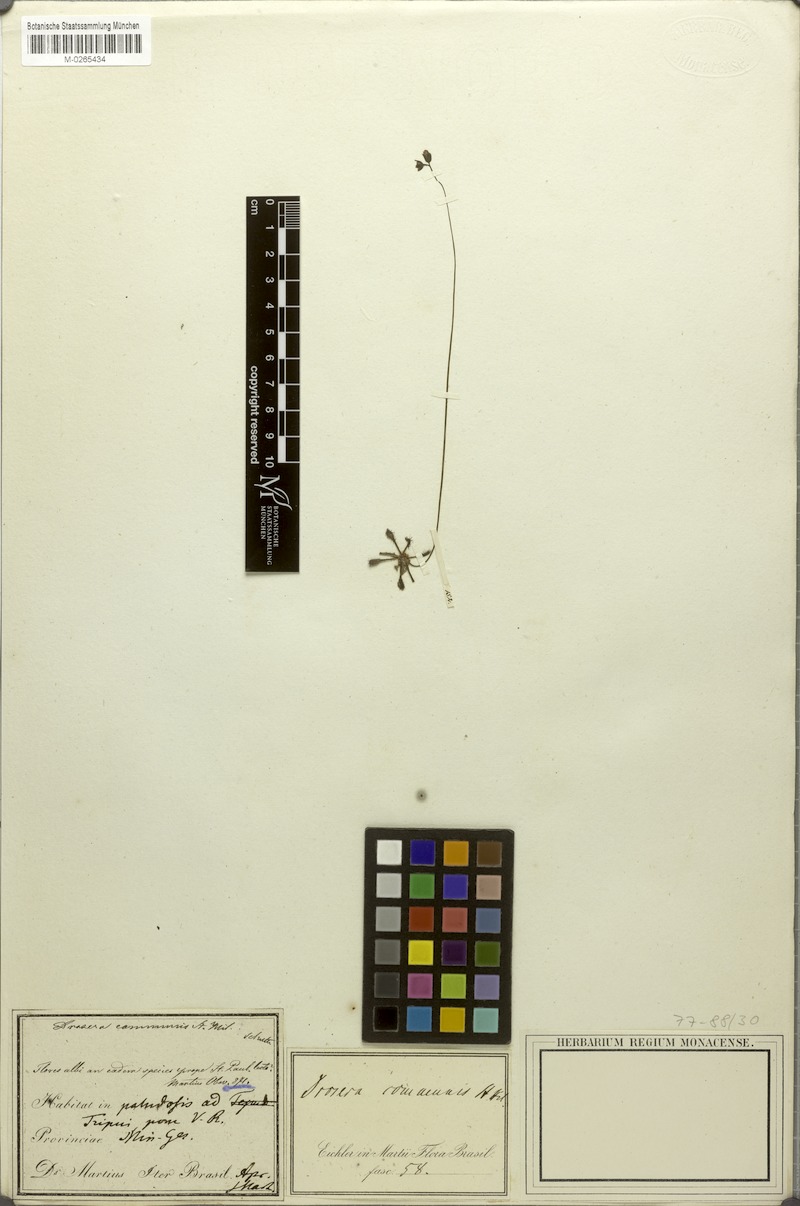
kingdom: Plantae
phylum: Tracheophyta
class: Magnoliopsida
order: Caryophyllales
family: Droseraceae
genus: Drosera
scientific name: Drosera communis
